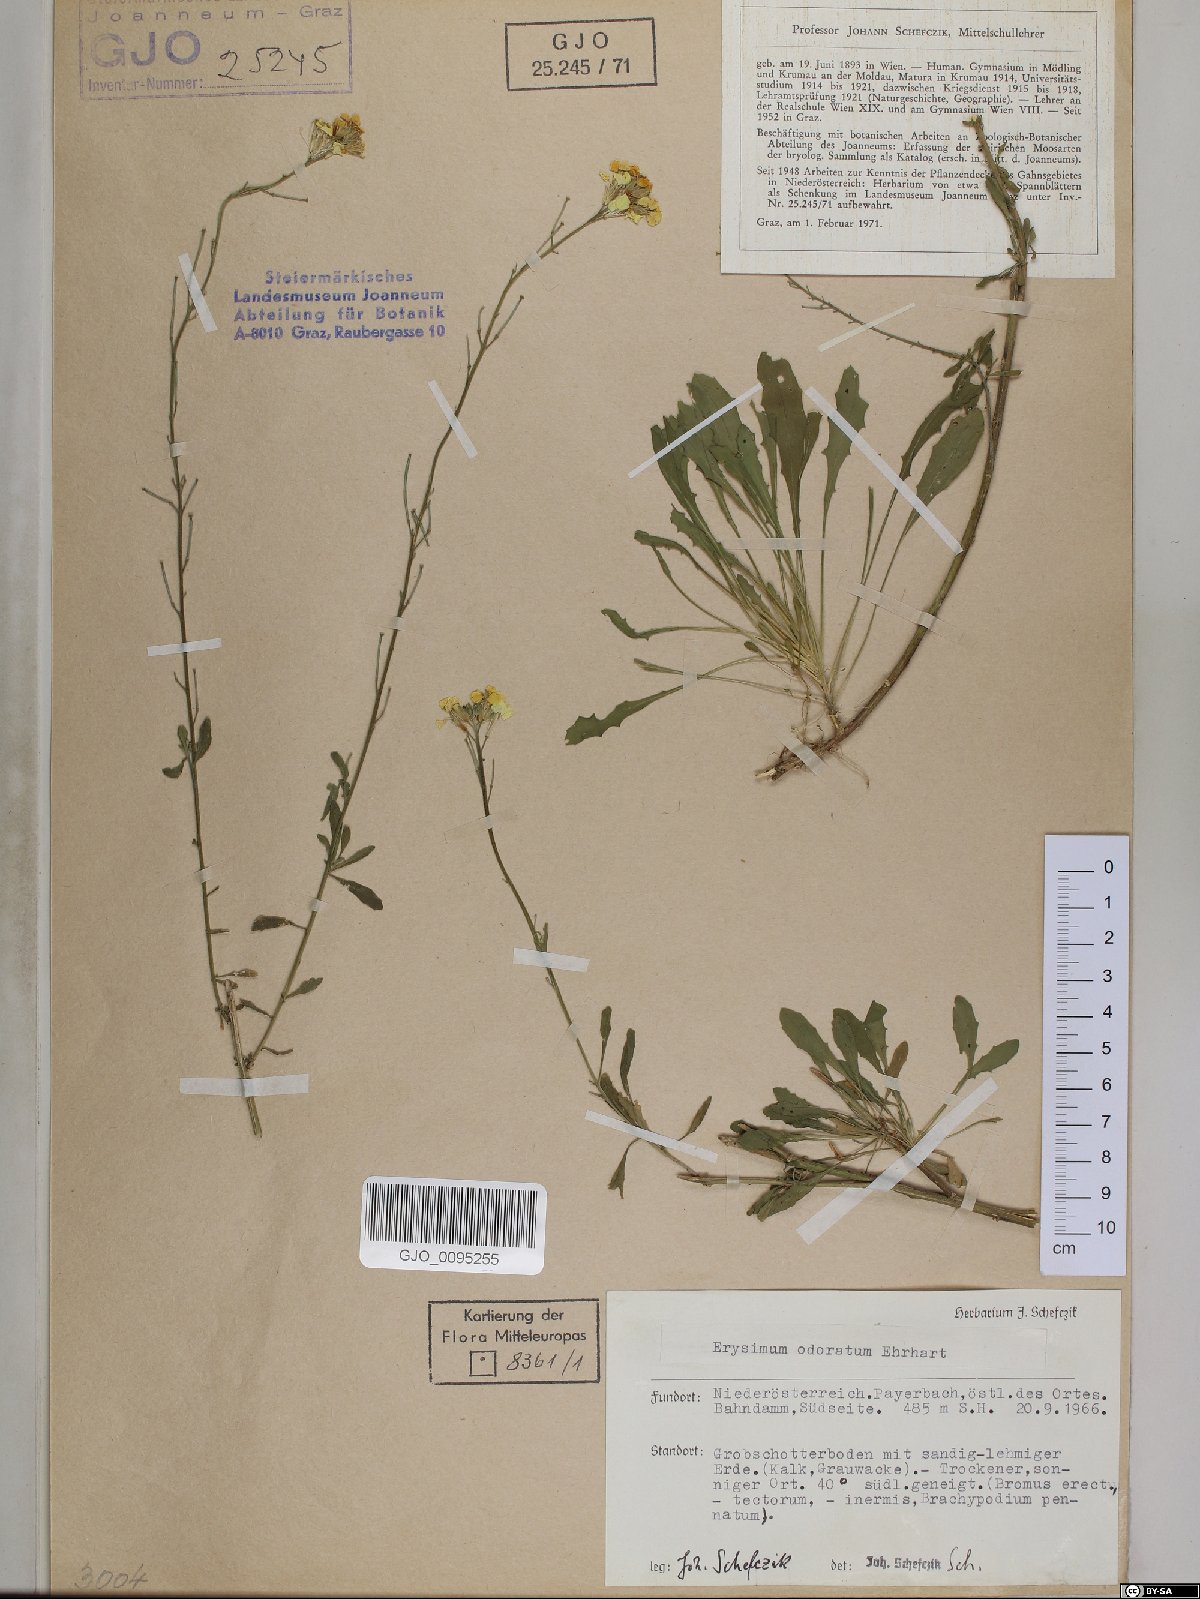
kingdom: Plantae
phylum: Tracheophyta
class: Magnoliopsida
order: Brassicales
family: Brassicaceae
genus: Erysimum
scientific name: Erysimum odoratum
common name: Smelly wallflower
